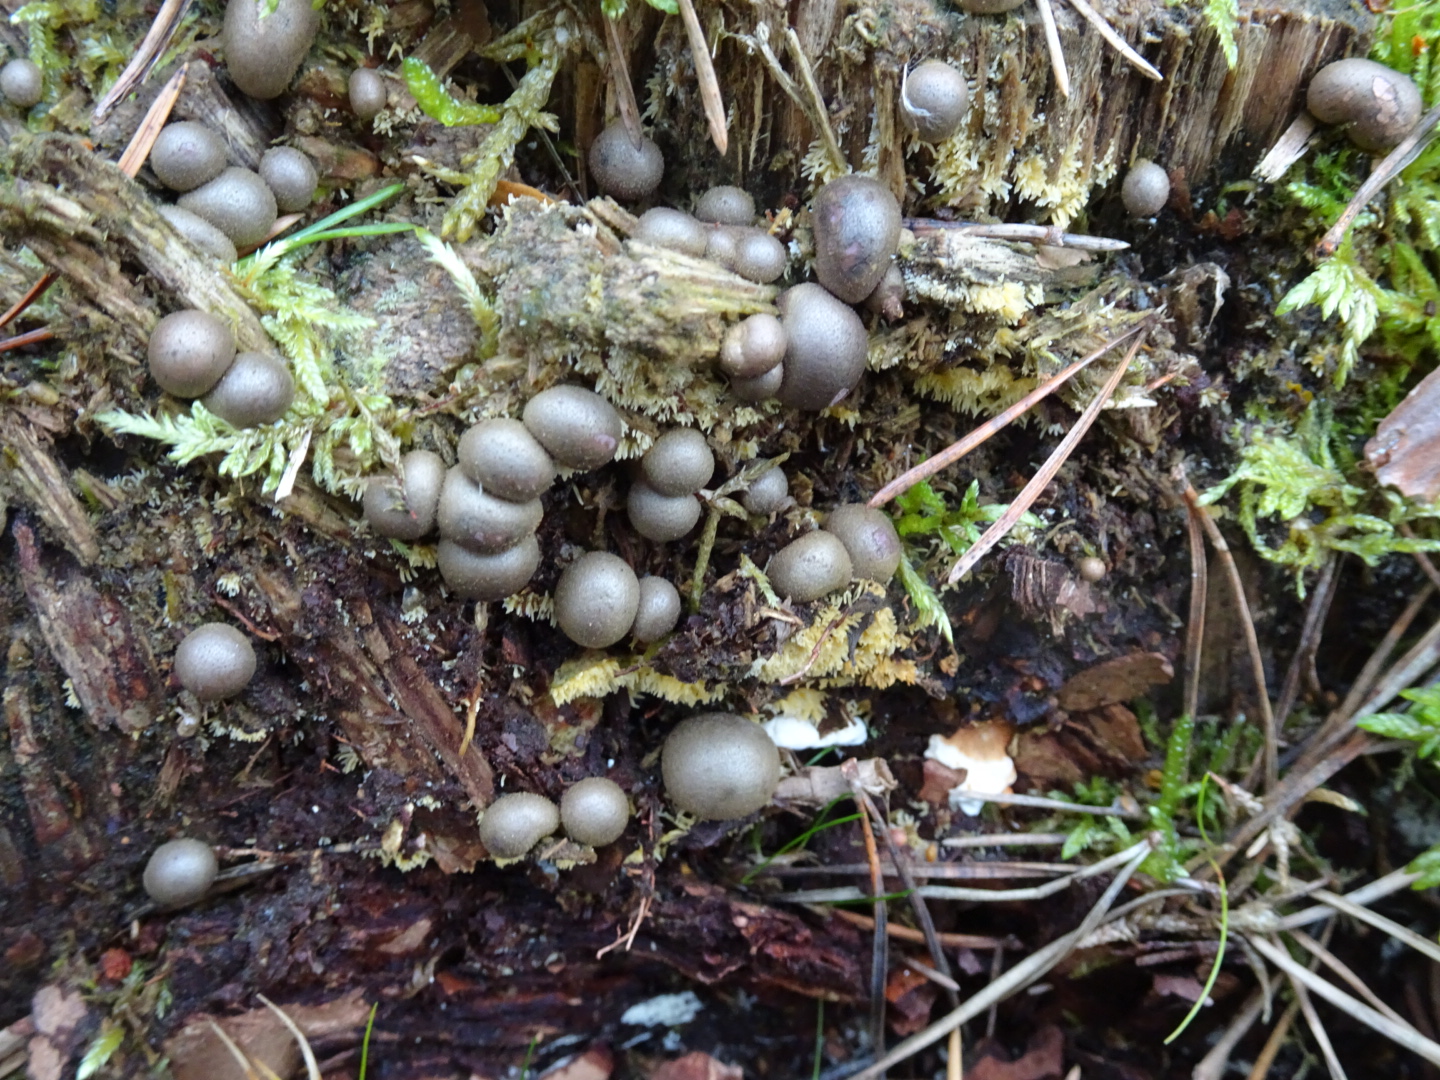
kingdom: Protozoa
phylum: Mycetozoa
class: Myxomycetes
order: Cribrariales
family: Tubiferaceae
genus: Lycogala
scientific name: Lycogala epidendrum
